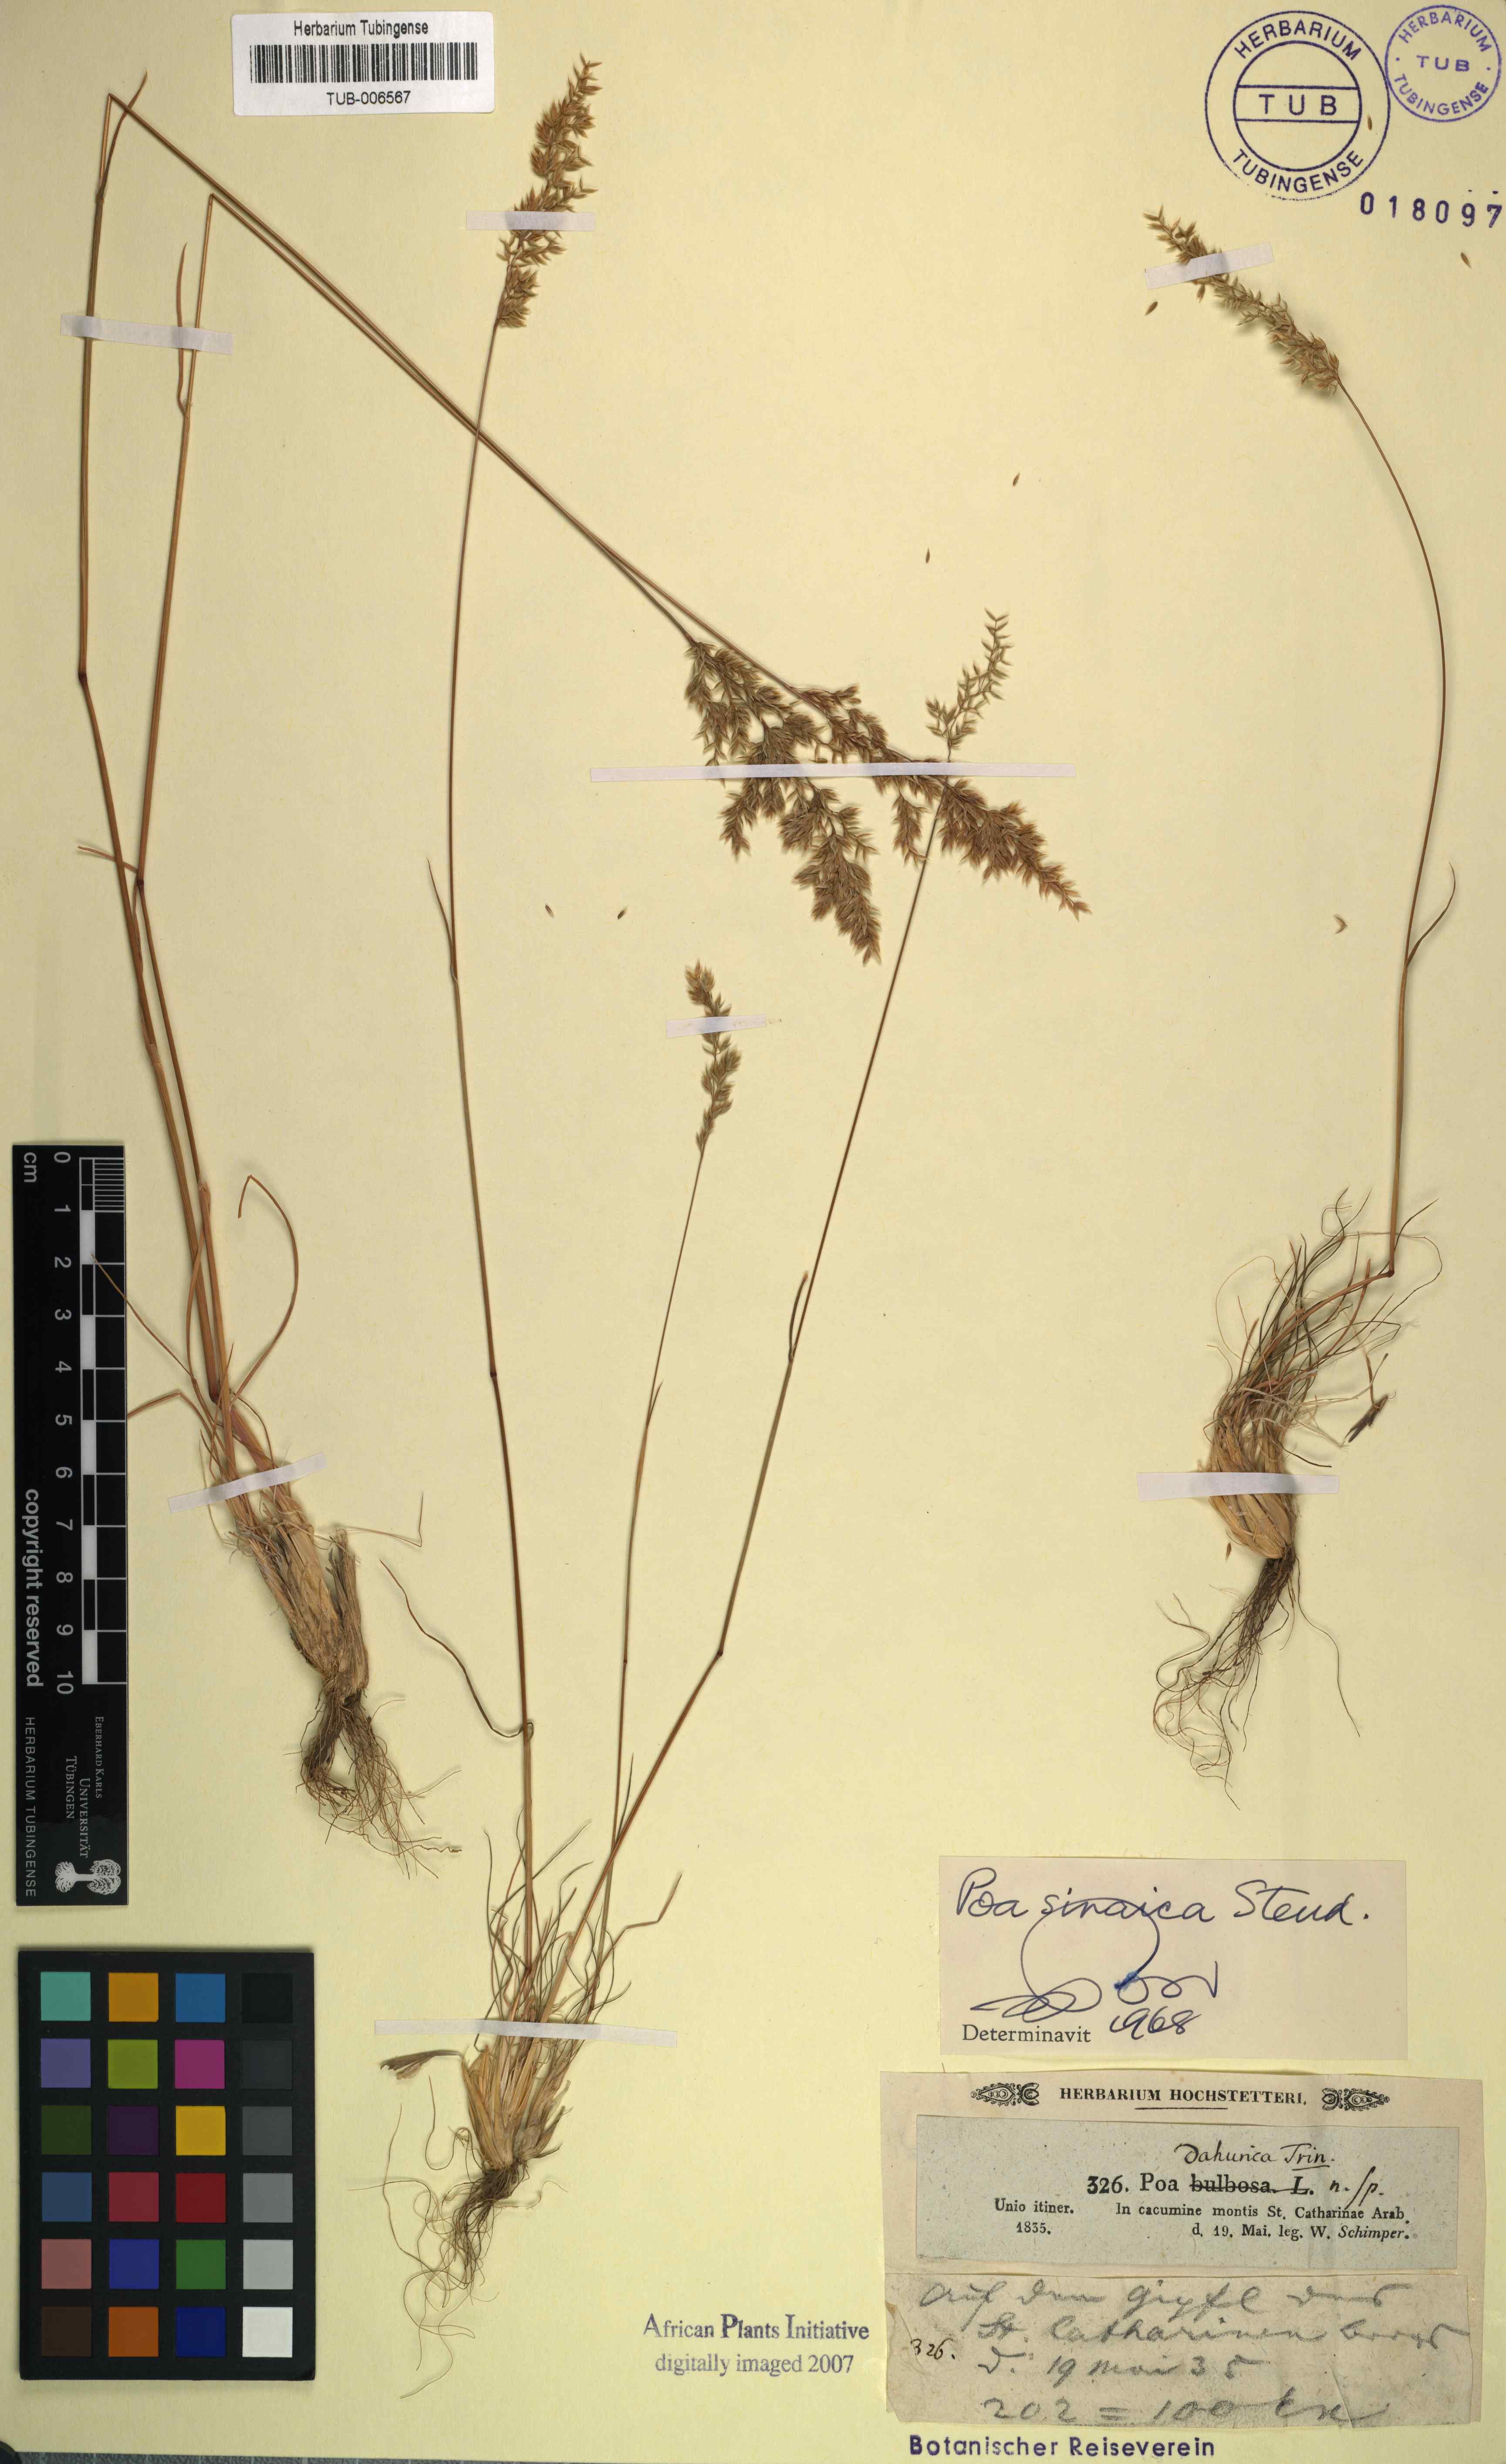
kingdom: Plantae
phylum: Tracheophyta
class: Liliopsida
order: Poales
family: Poaceae
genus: Poa
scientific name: Poa sinaica
